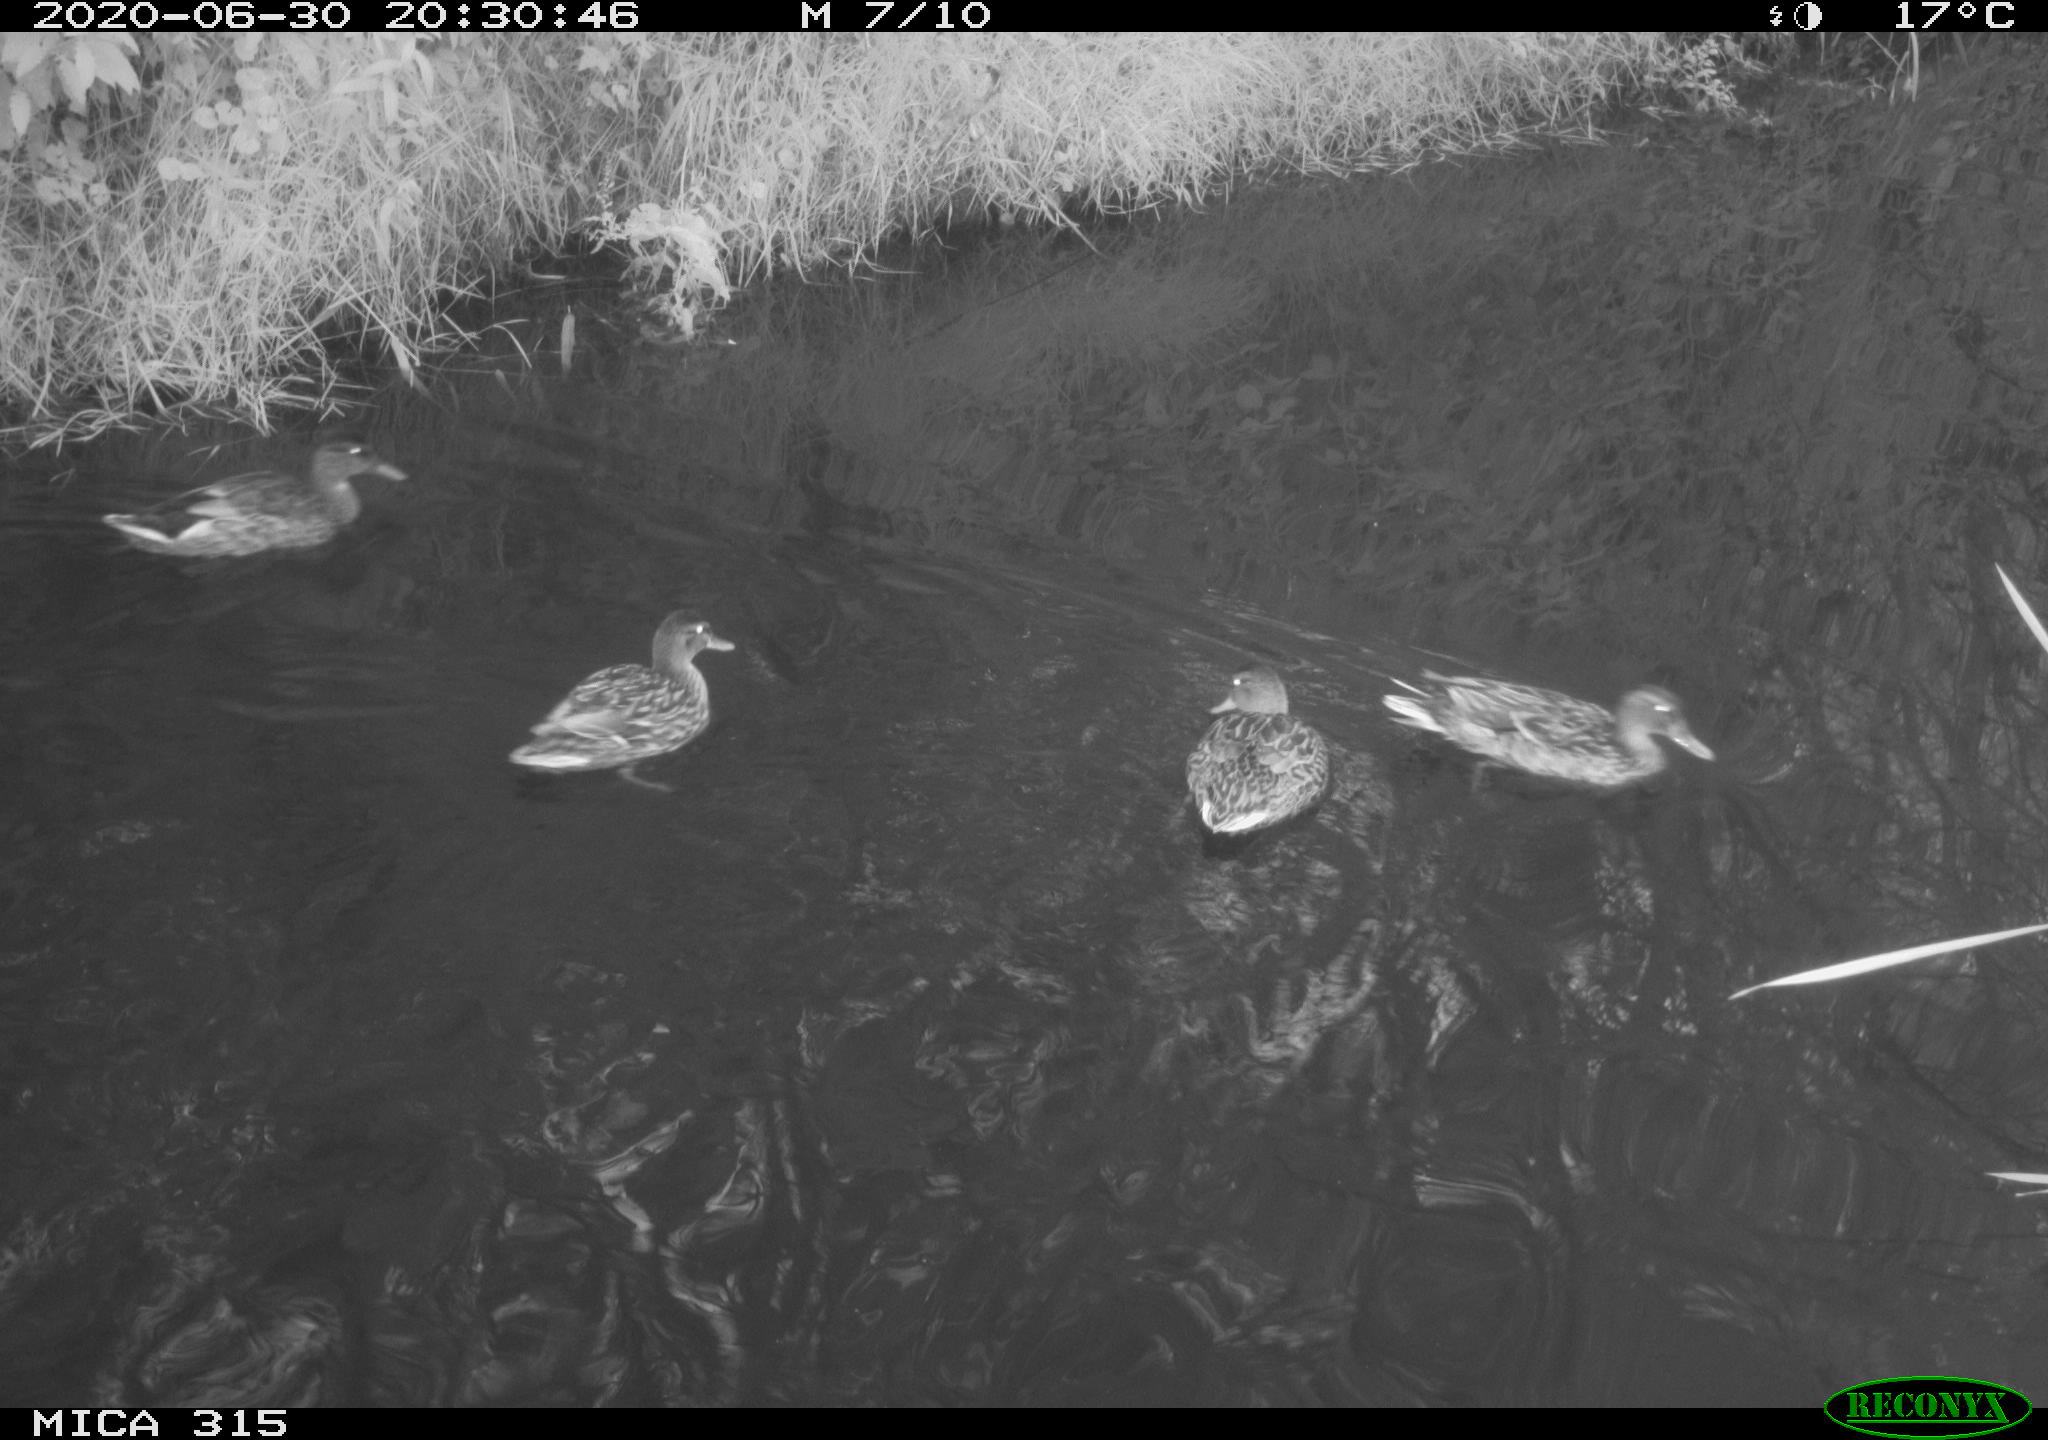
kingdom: Animalia
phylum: Chordata
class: Aves
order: Anseriformes
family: Anatidae
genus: Anas
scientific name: Anas platyrhynchos
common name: Mallard
